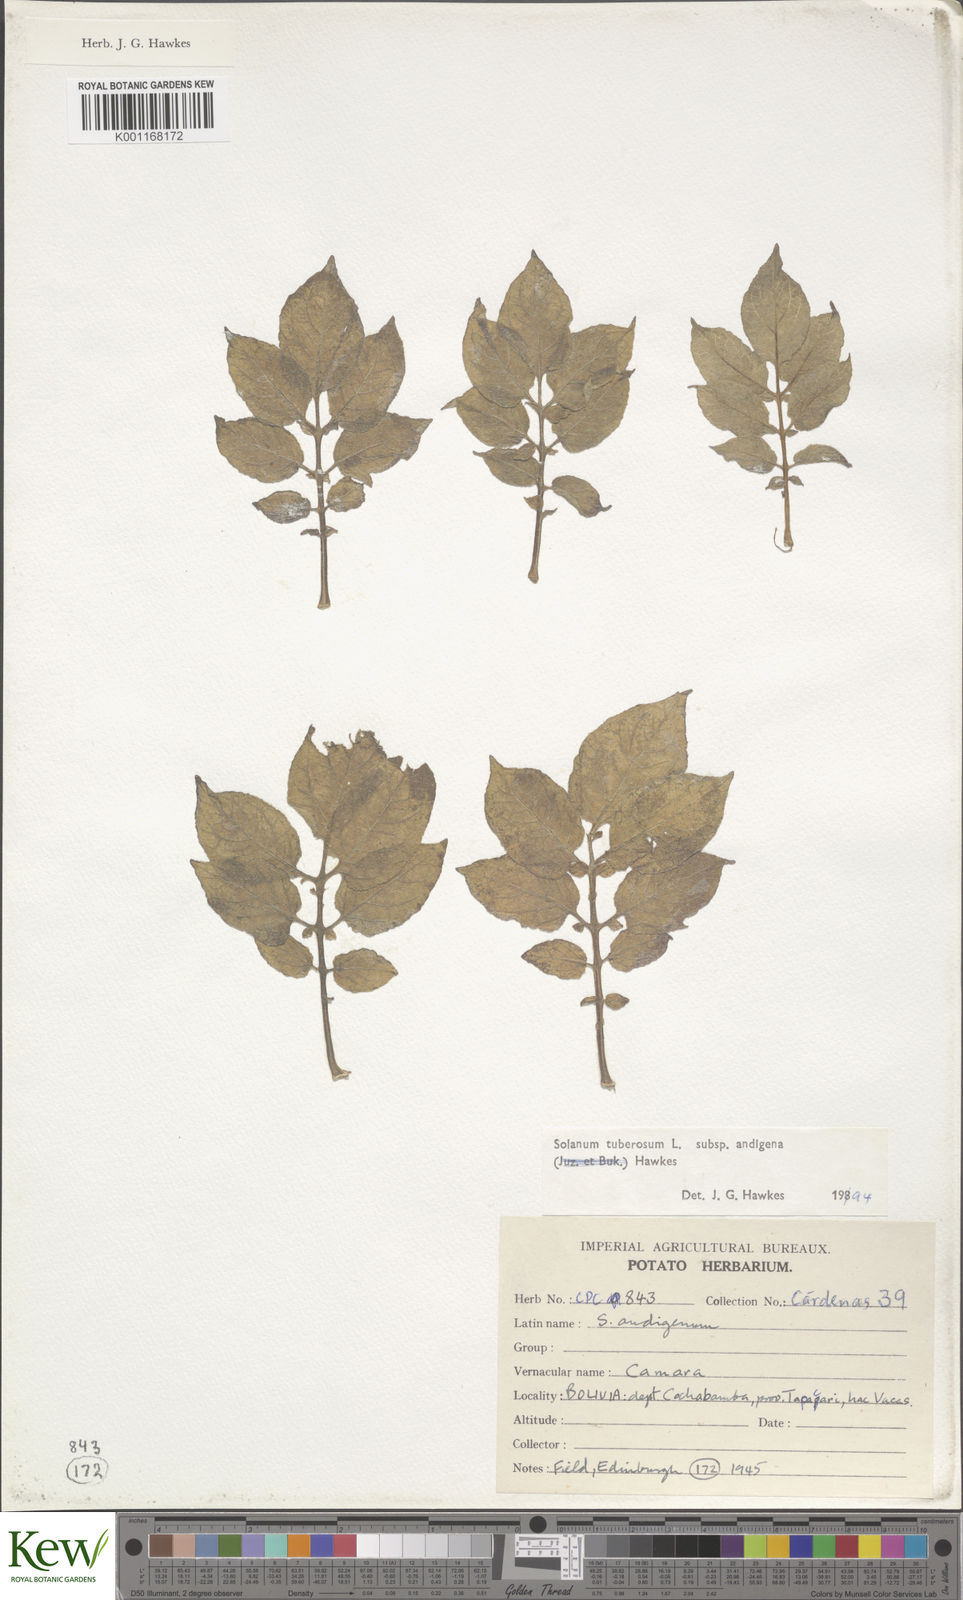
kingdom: Plantae
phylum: Tracheophyta
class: Magnoliopsida
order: Solanales
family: Solanaceae
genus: Solanum
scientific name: Solanum tuberosum
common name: Potato
